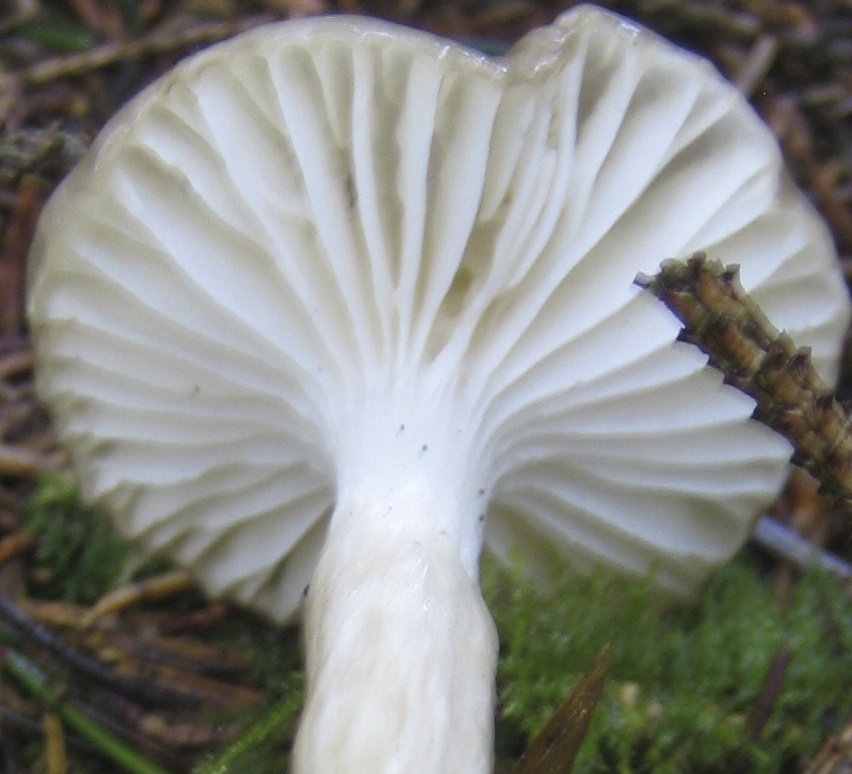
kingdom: Fungi
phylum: Basidiomycota
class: Agaricomycetes
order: Agaricales
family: Hygrophoraceae
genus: Hygrophorus
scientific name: Hygrophorus olivaceoalbus
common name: hvidbrun sneglehat
